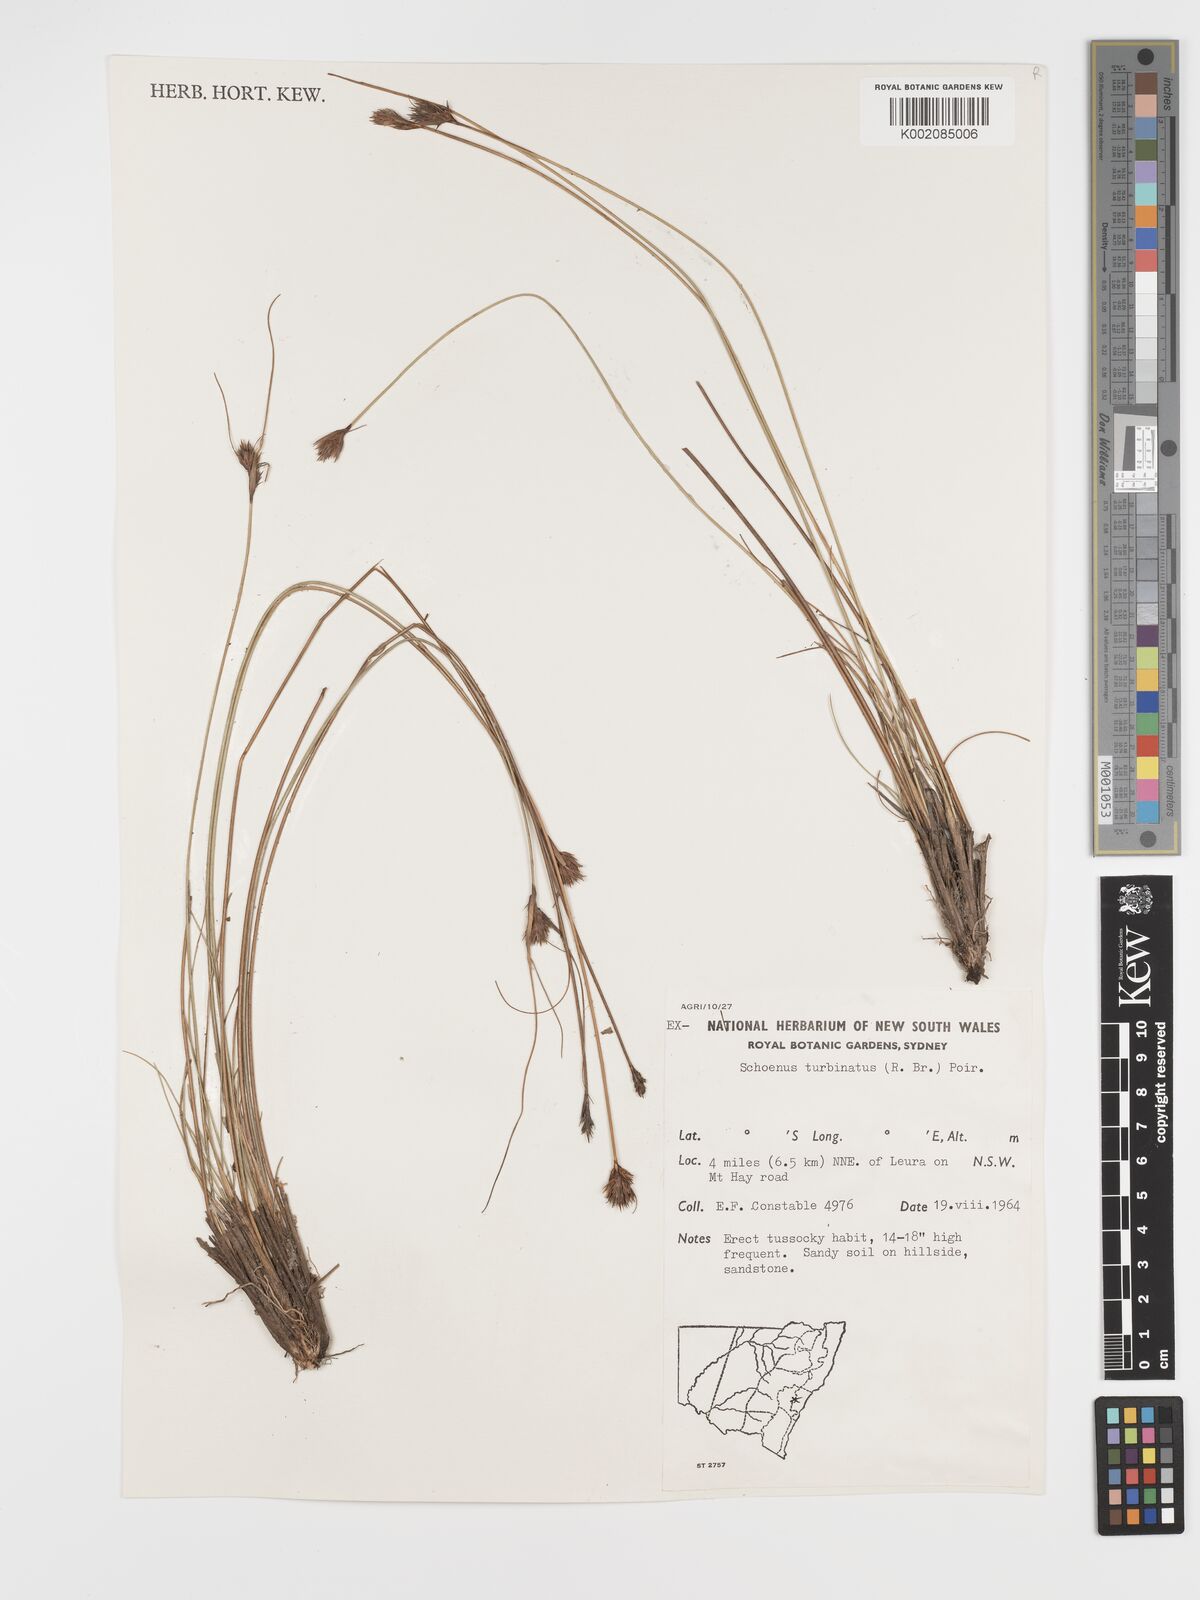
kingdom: Plantae
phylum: Tracheophyta
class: Liliopsida
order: Poales
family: Cyperaceae
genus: Schoenus
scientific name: Schoenus turbinatus
